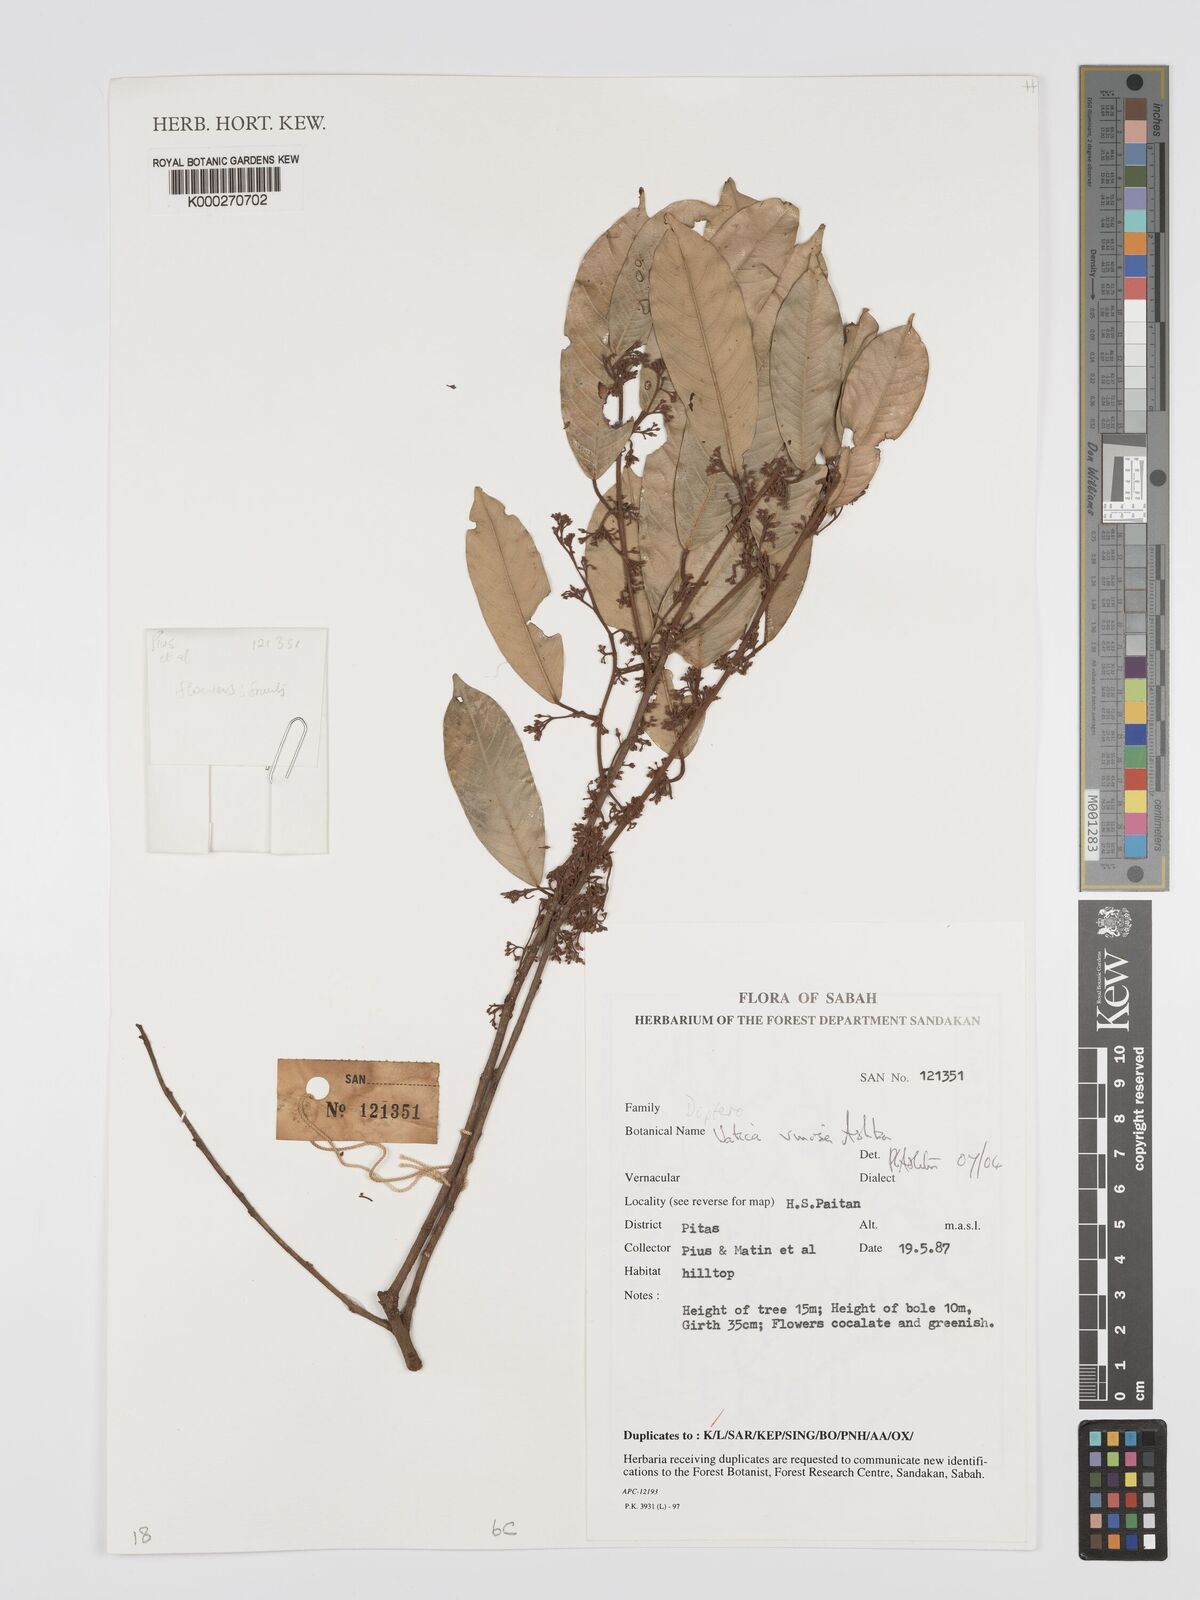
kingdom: Plantae
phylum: Tracheophyta
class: Magnoliopsida
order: Malvales
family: Dipterocarpaceae
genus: Vatica
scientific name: Vatica vinosa
